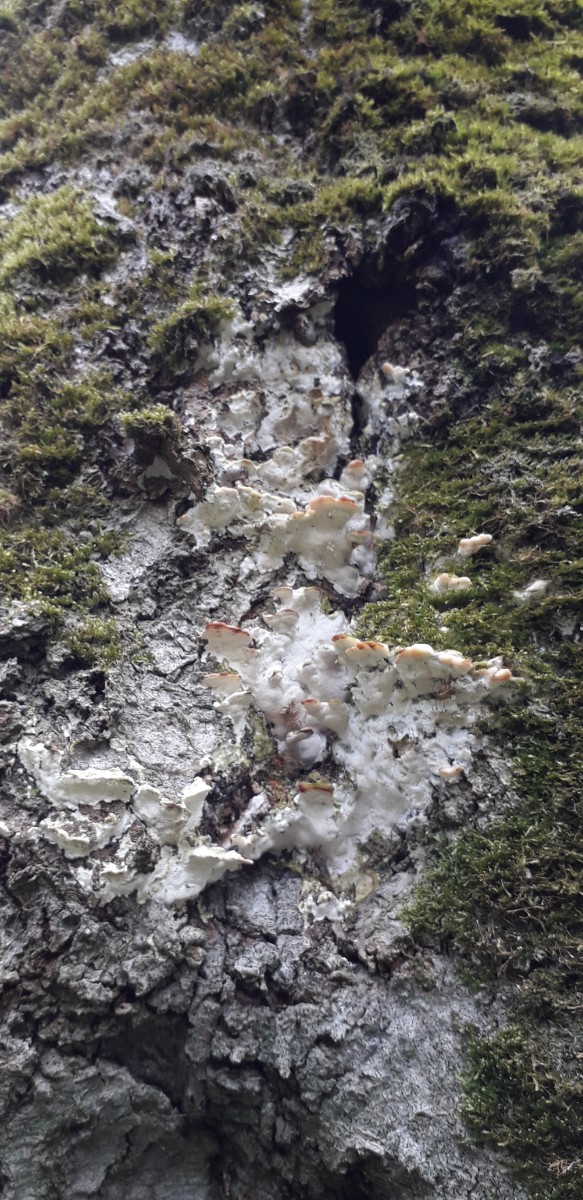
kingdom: Fungi
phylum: Basidiomycota
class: Agaricomycetes
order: Hymenochaetales
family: Oxyporaceae
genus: Oxyporus
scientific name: Oxyporus populinus
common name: sammenvokset trylleporesvamp
